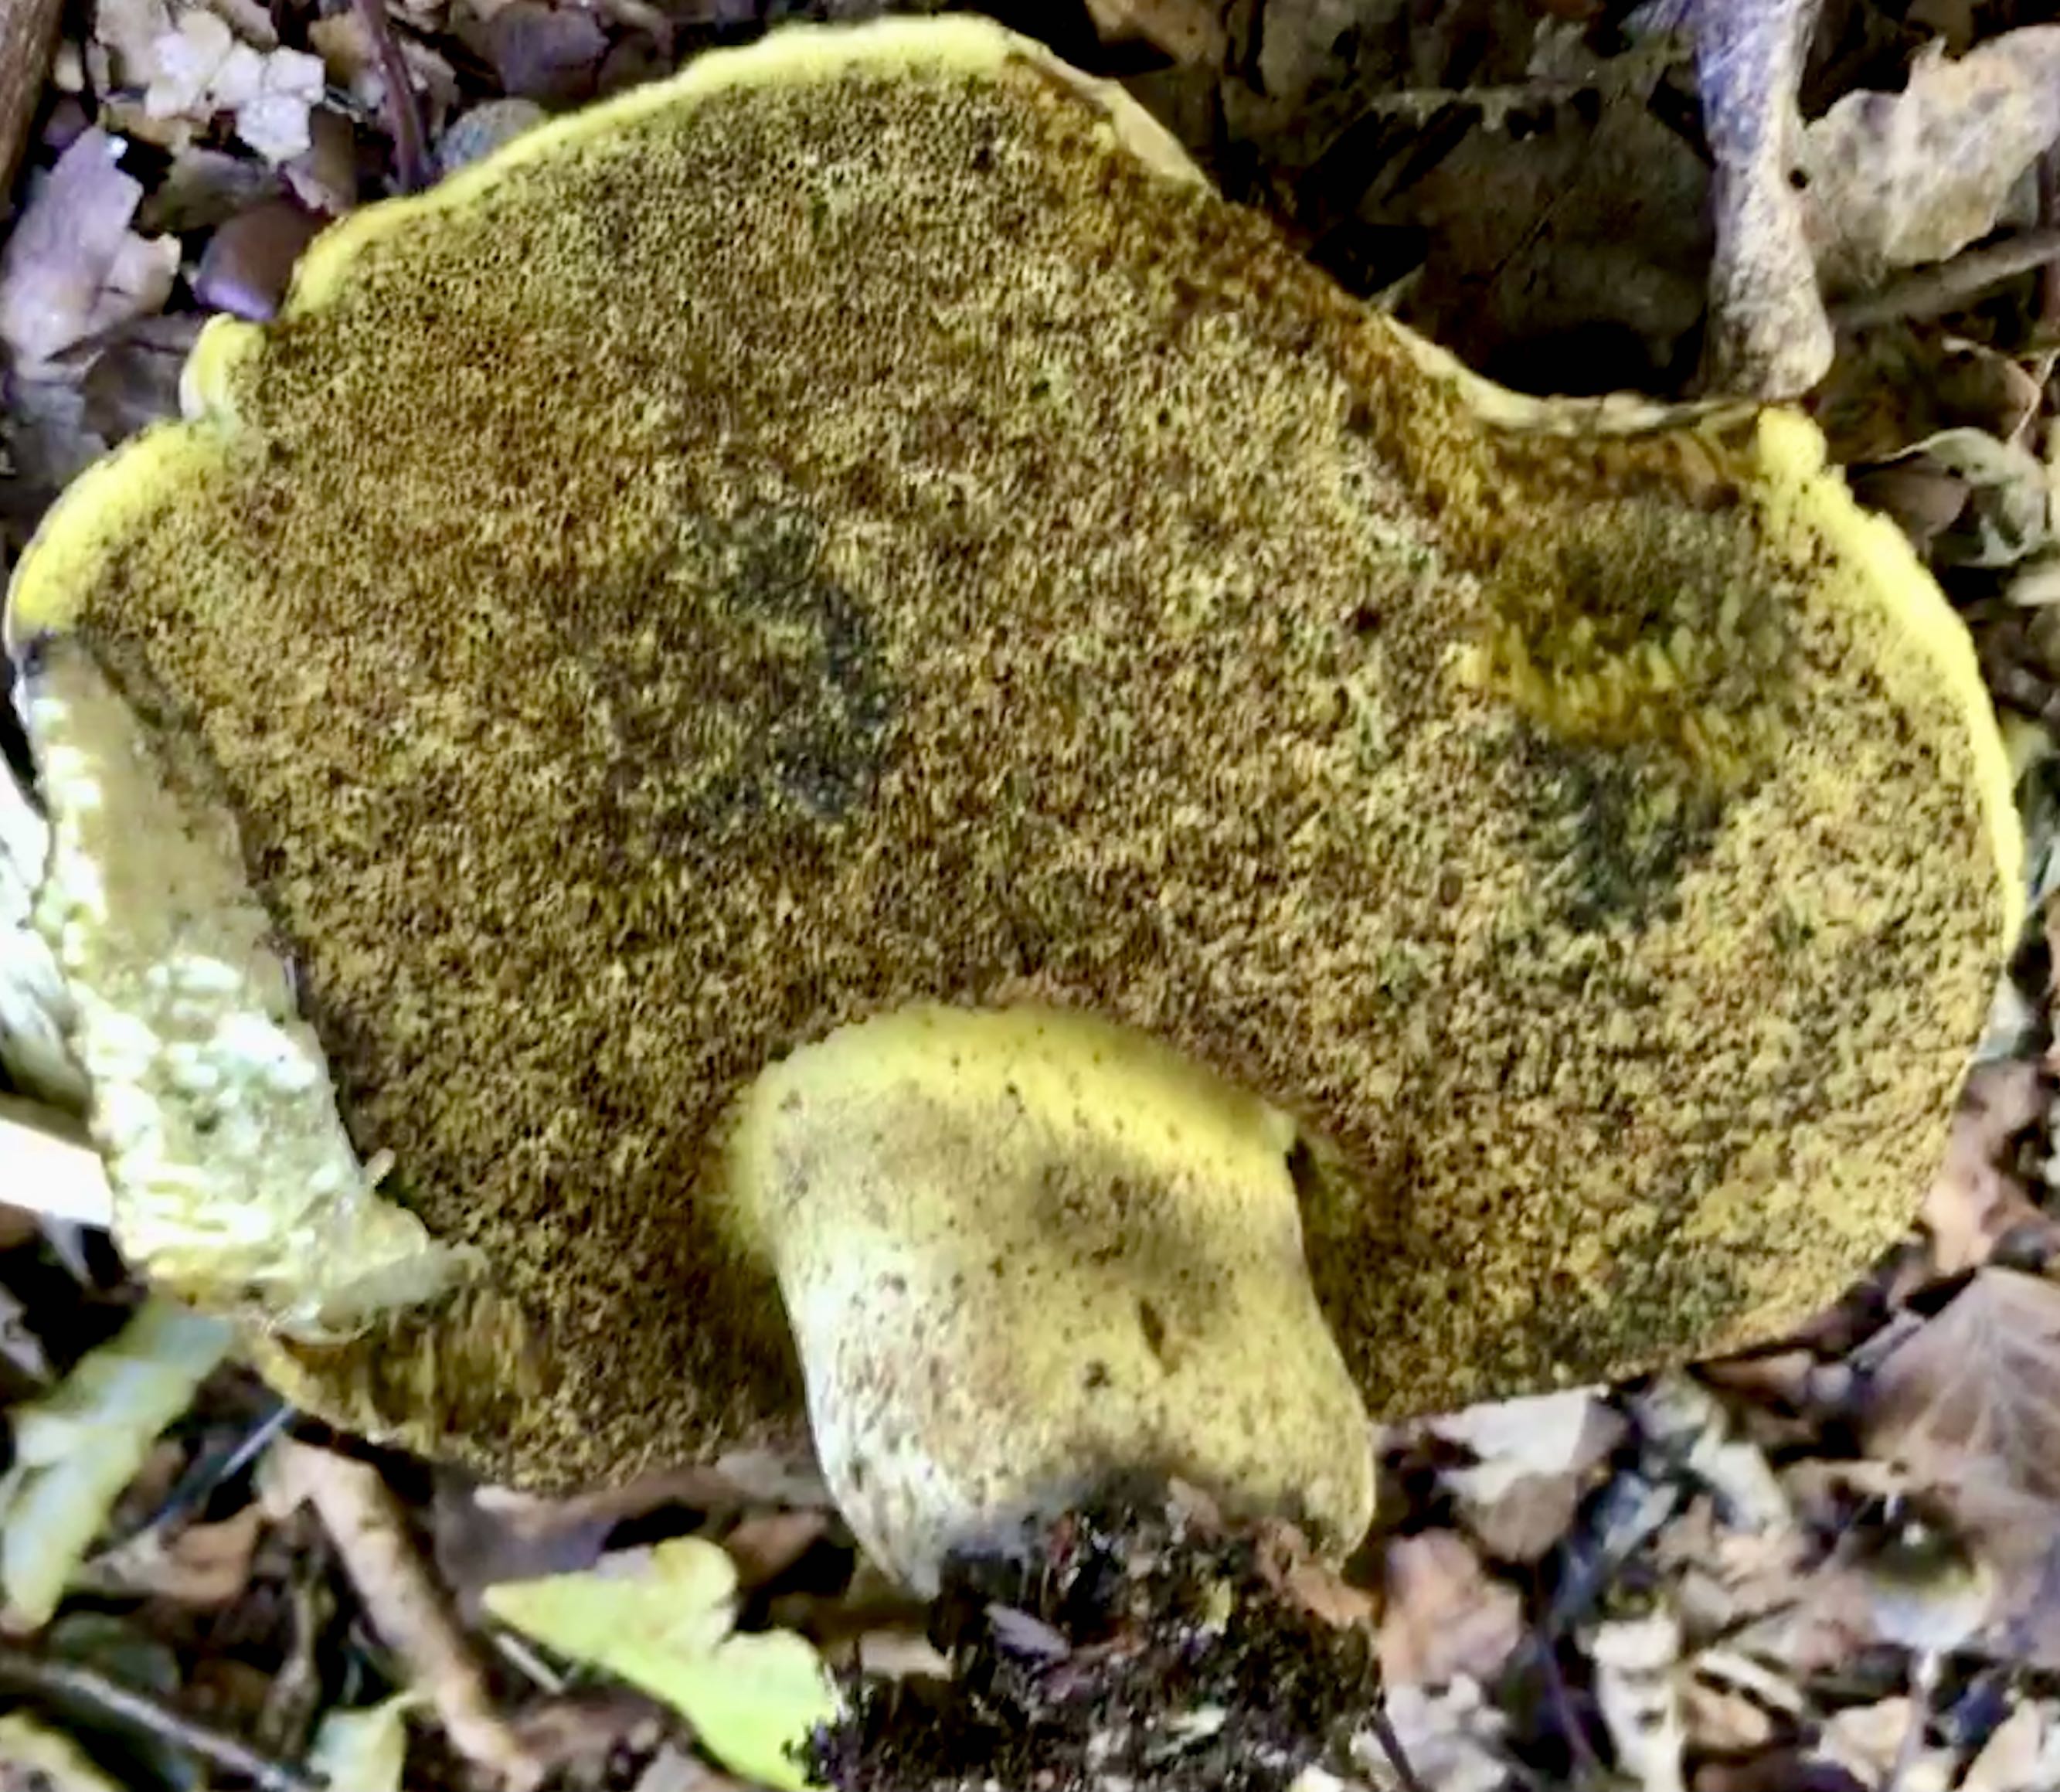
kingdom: Fungi
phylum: Basidiomycota
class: Agaricomycetes
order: Boletales
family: Boletaceae
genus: Caloboletus
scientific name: Caloboletus radicans
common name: rod-rørhat
